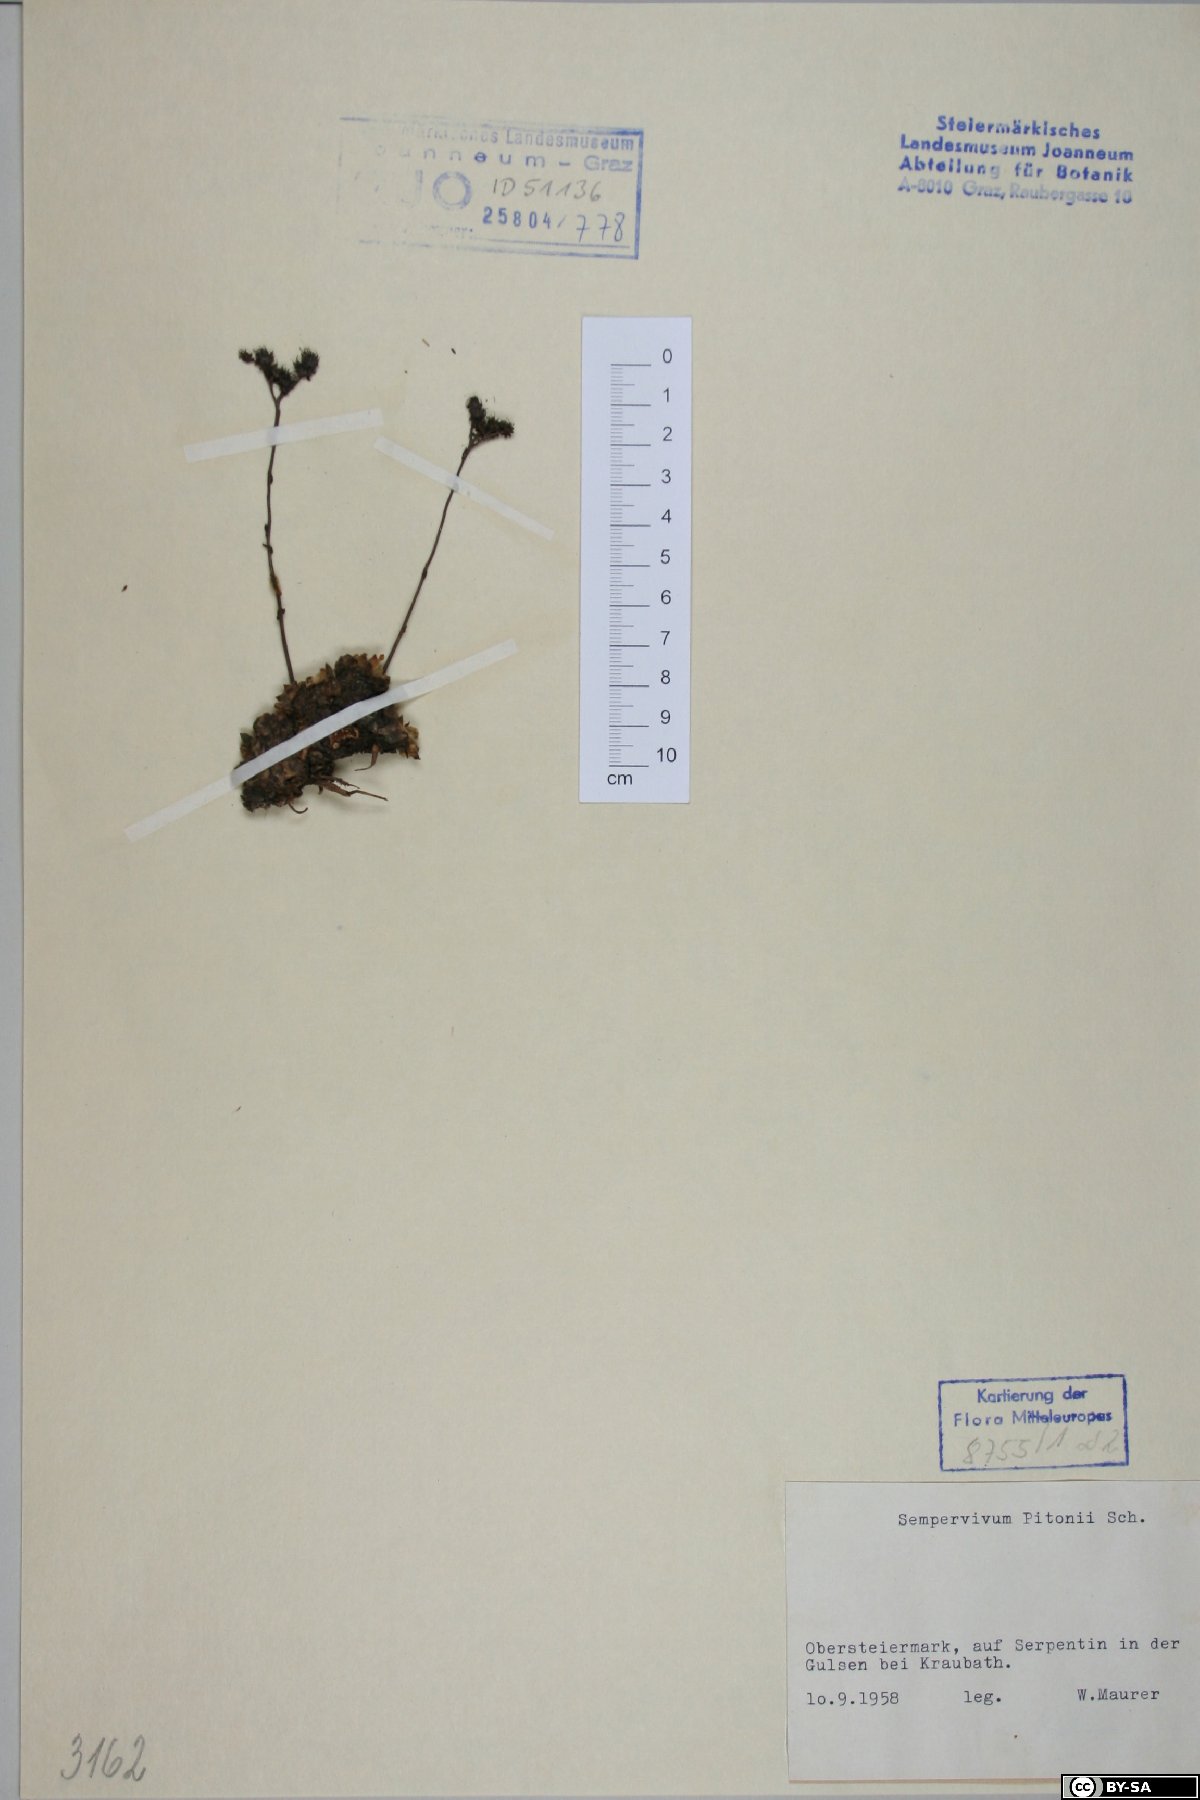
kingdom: Plantae
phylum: Tracheophyta
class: Magnoliopsida
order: Saxifragales
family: Crassulaceae
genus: Sempervivum
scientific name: Sempervivum pittonii
